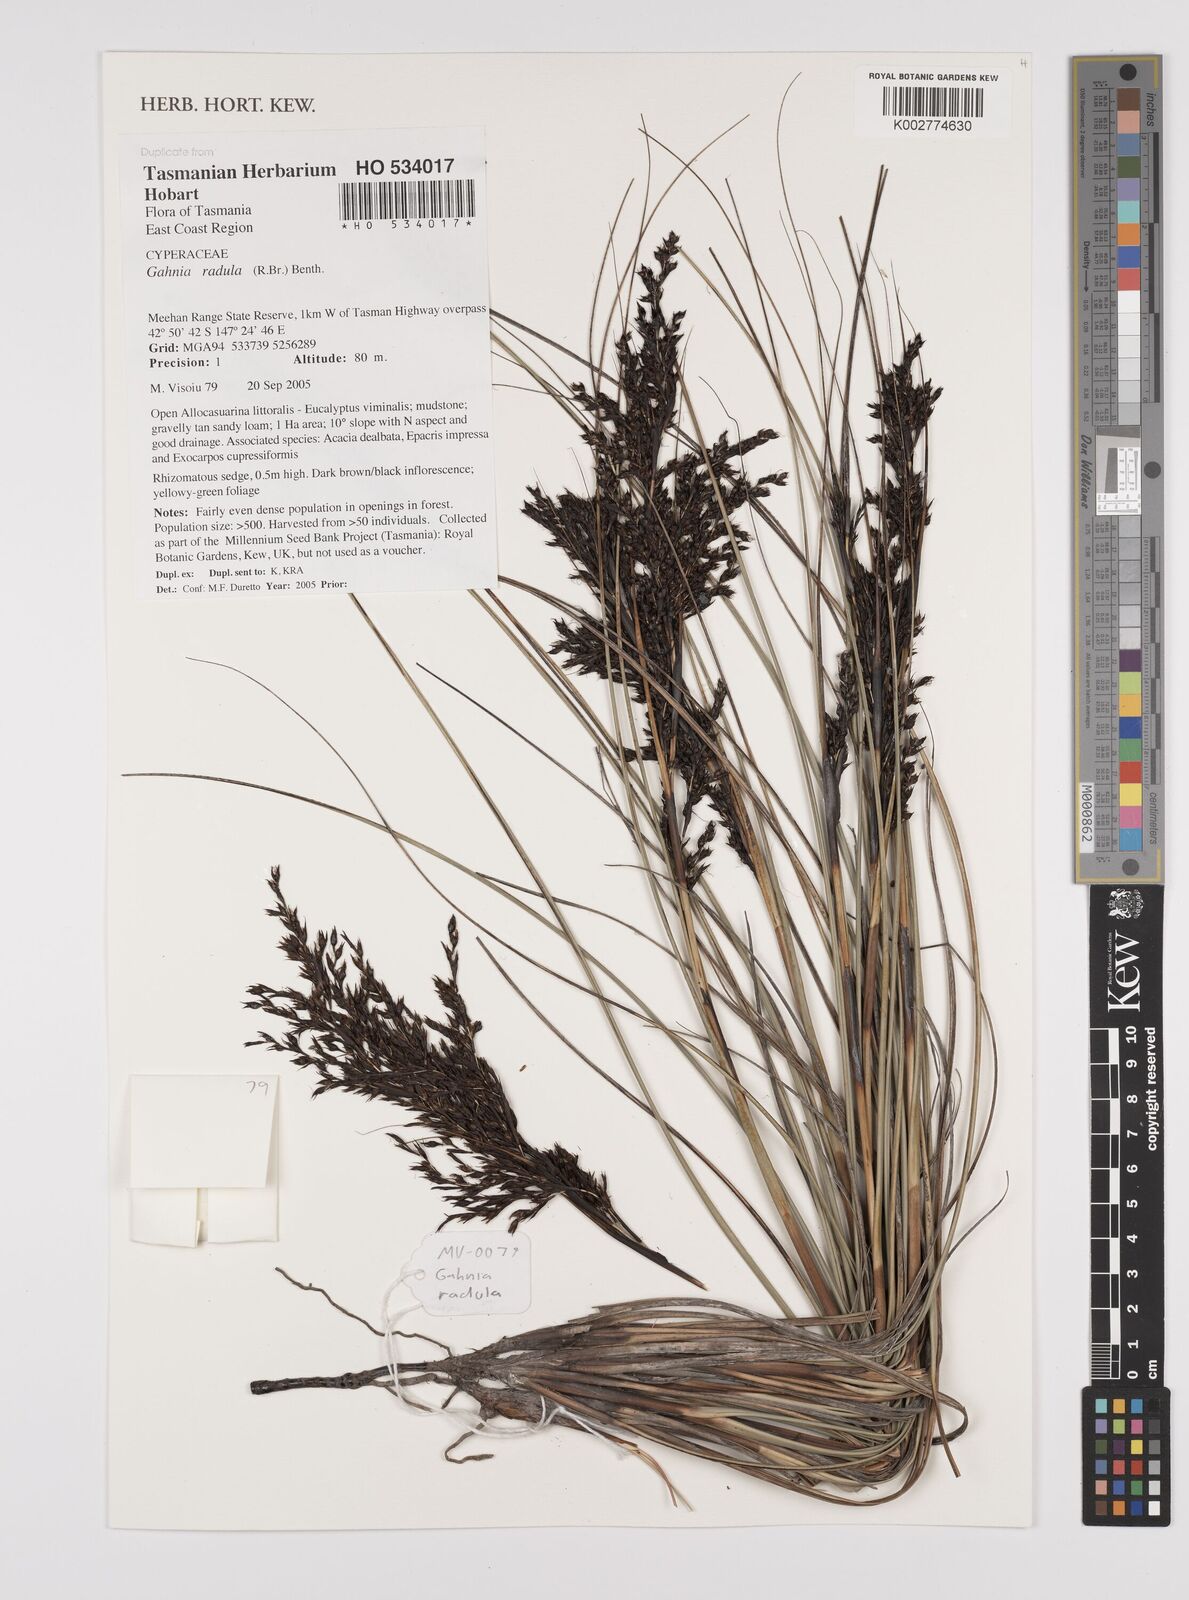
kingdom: Plantae
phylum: Tracheophyta
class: Liliopsida
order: Poales
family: Cyperaceae
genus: Gahnia
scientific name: Gahnia radula
